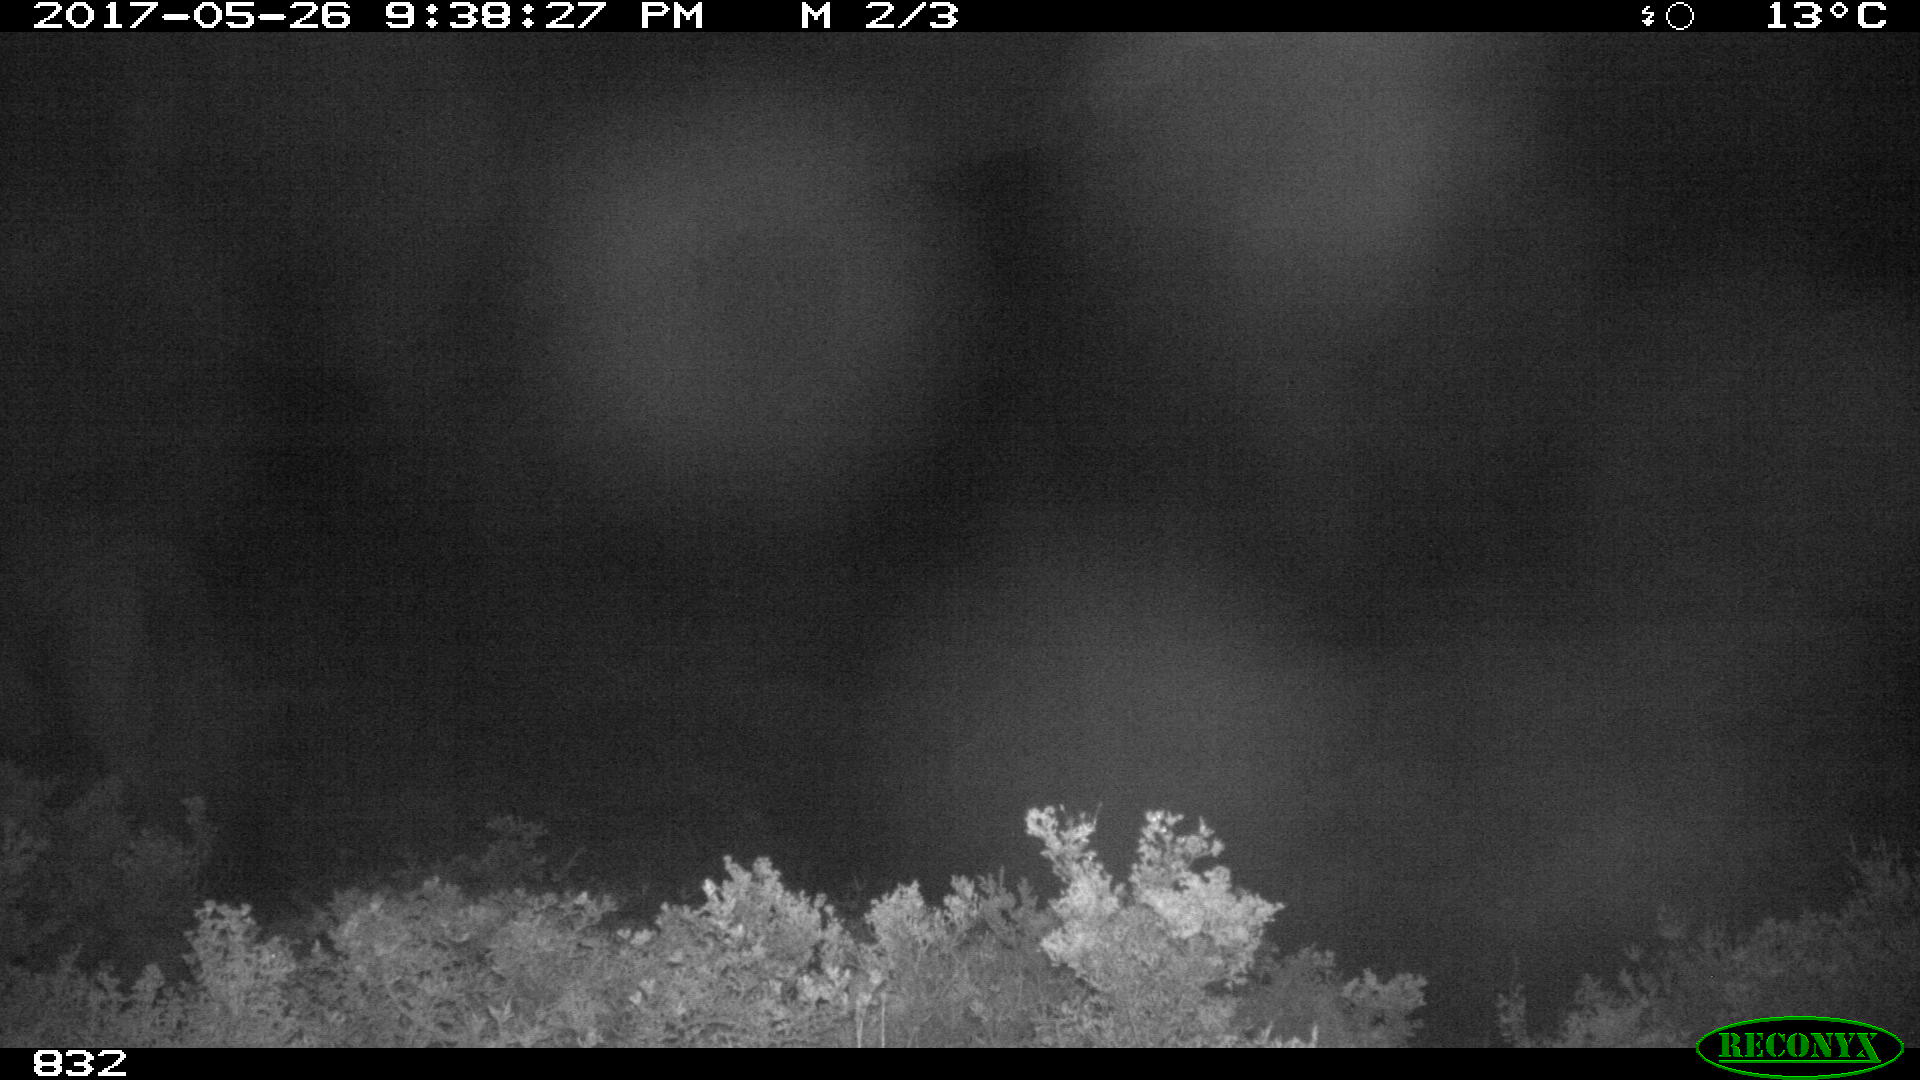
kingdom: Animalia
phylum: Chordata
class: Mammalia
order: Perissodactyla
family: Equidae
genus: Equus
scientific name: Equus caballus
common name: Horse
